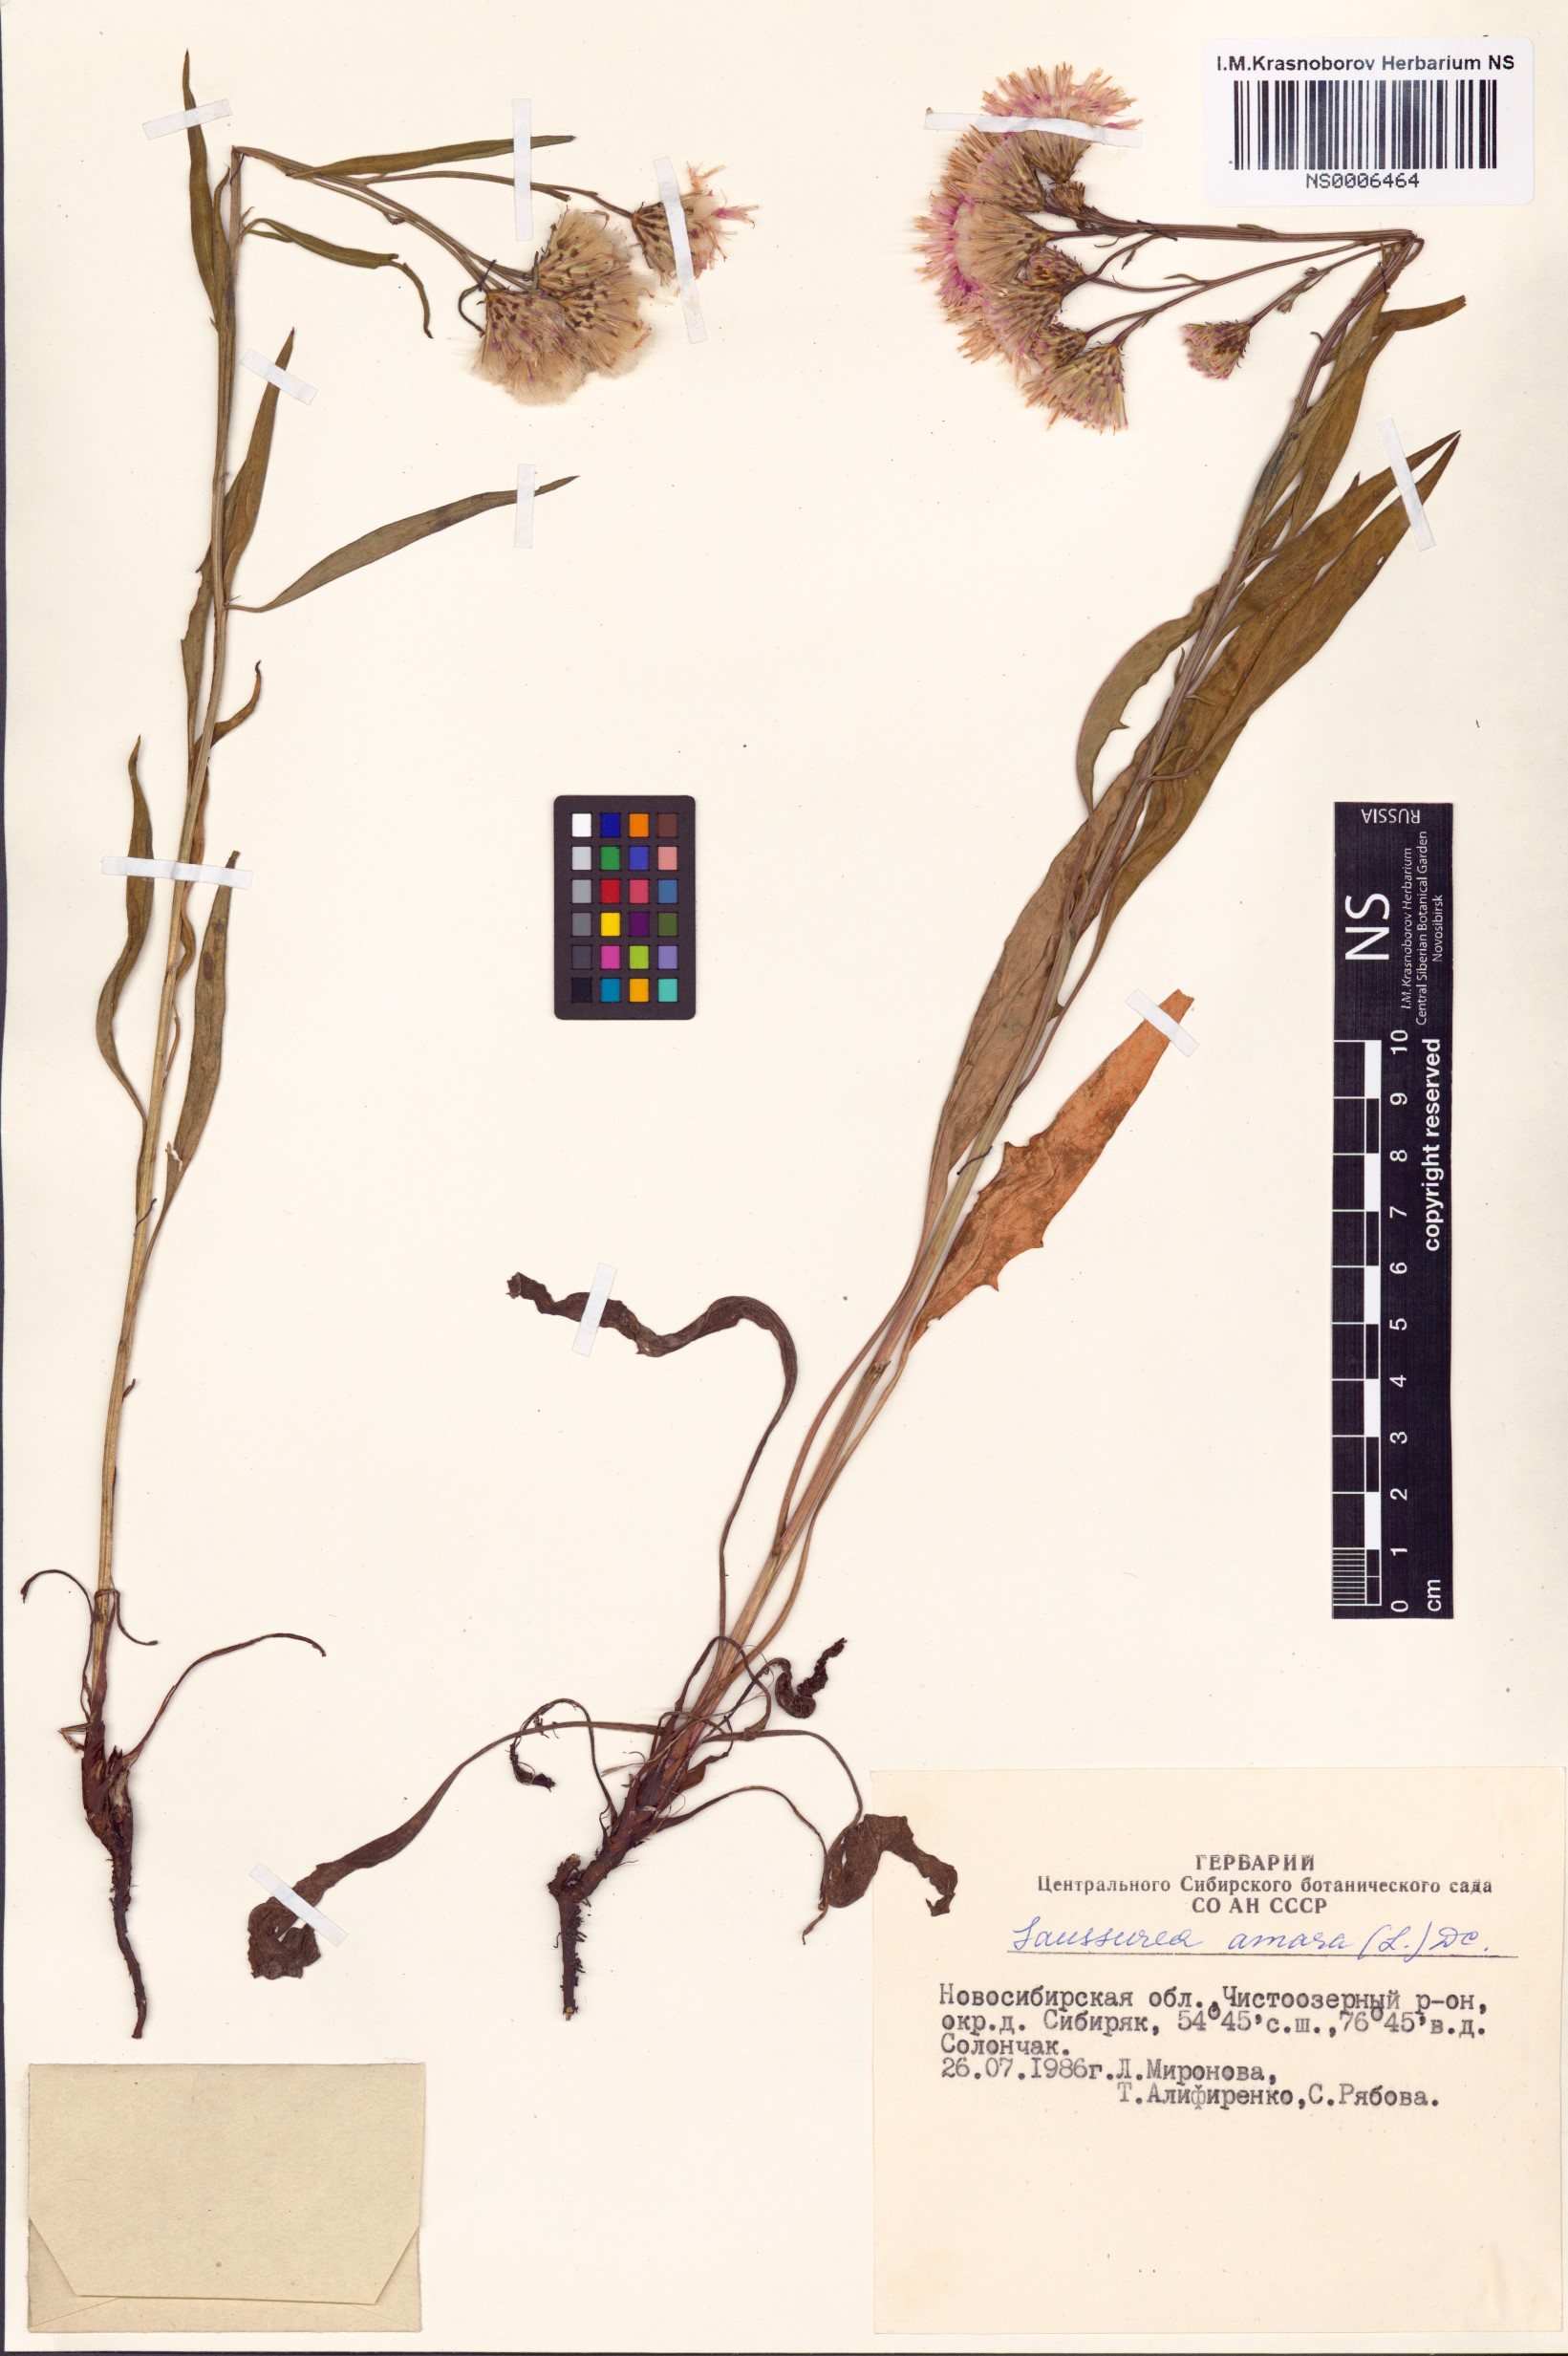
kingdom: Plantae
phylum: Tracheophyta
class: Magnoliopsida
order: Asterales
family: Asteraceae
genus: Saussurea
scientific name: Saussurea amara
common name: Alberta sawwort
